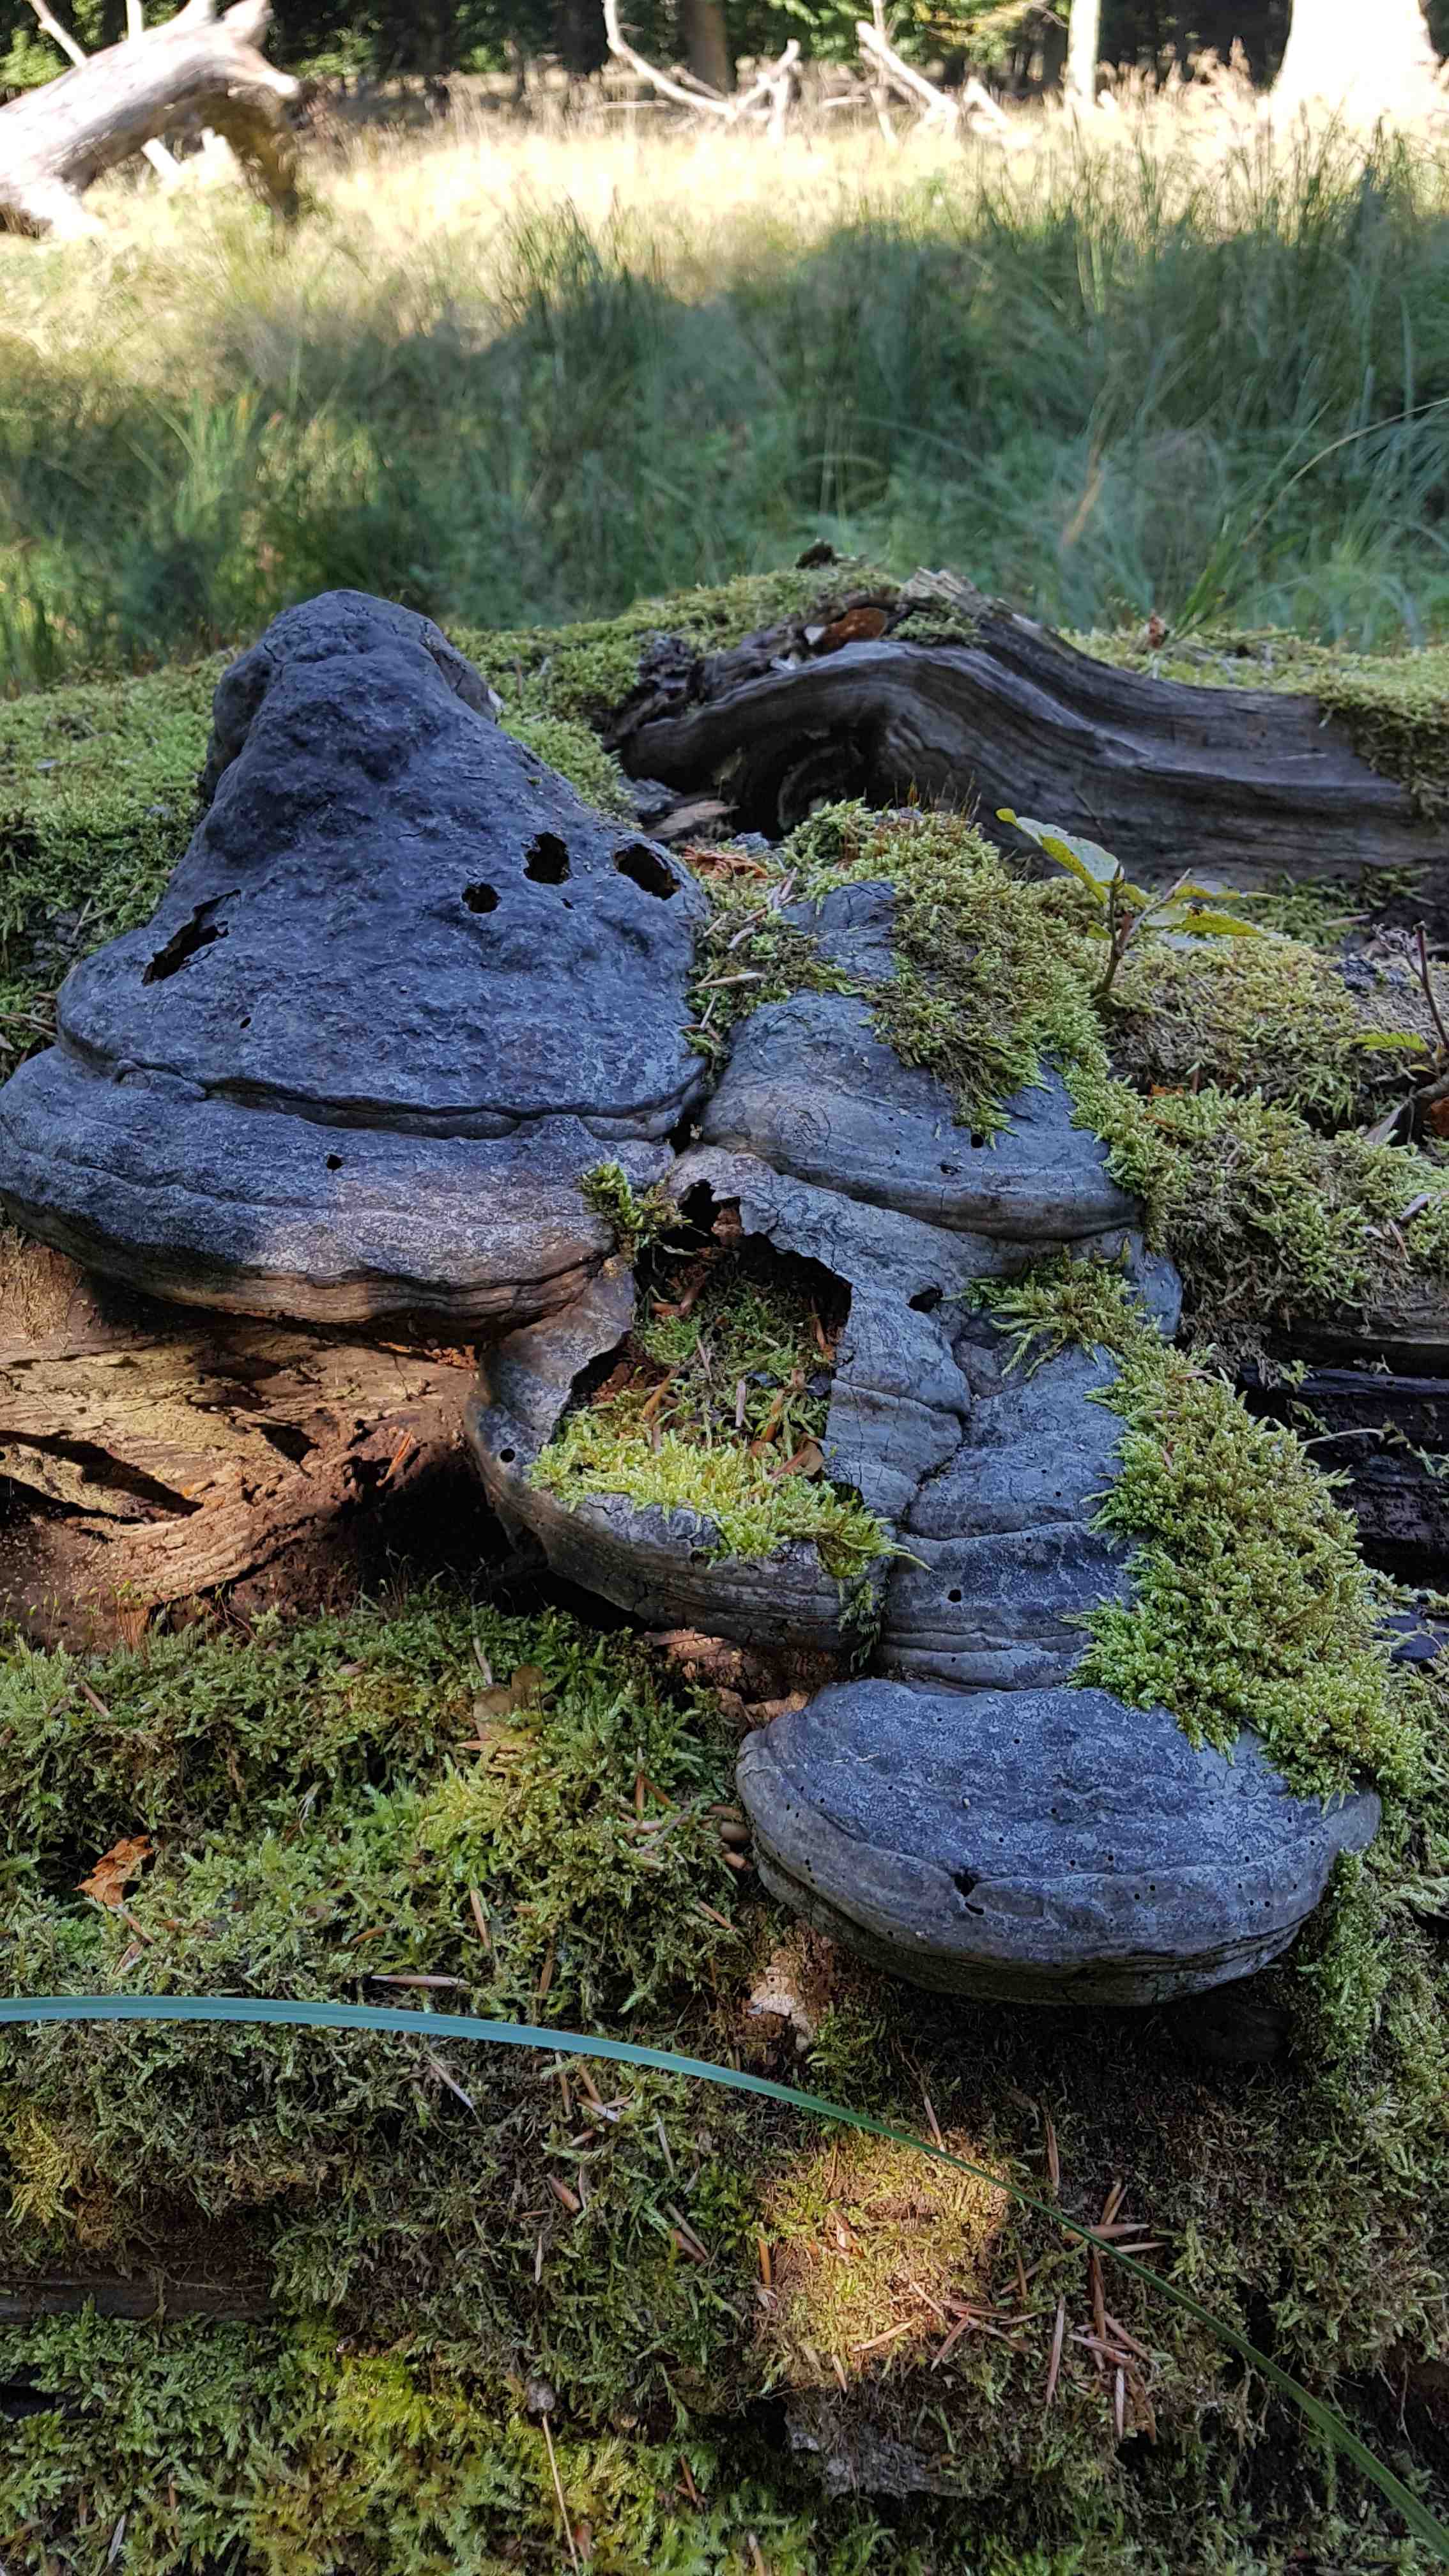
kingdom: Fungi
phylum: Basidiomycota
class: Agaricomycetes
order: Polyporales
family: Polyporaceae
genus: Fomes
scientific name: Fomes fomentarius
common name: tøndersvamp
